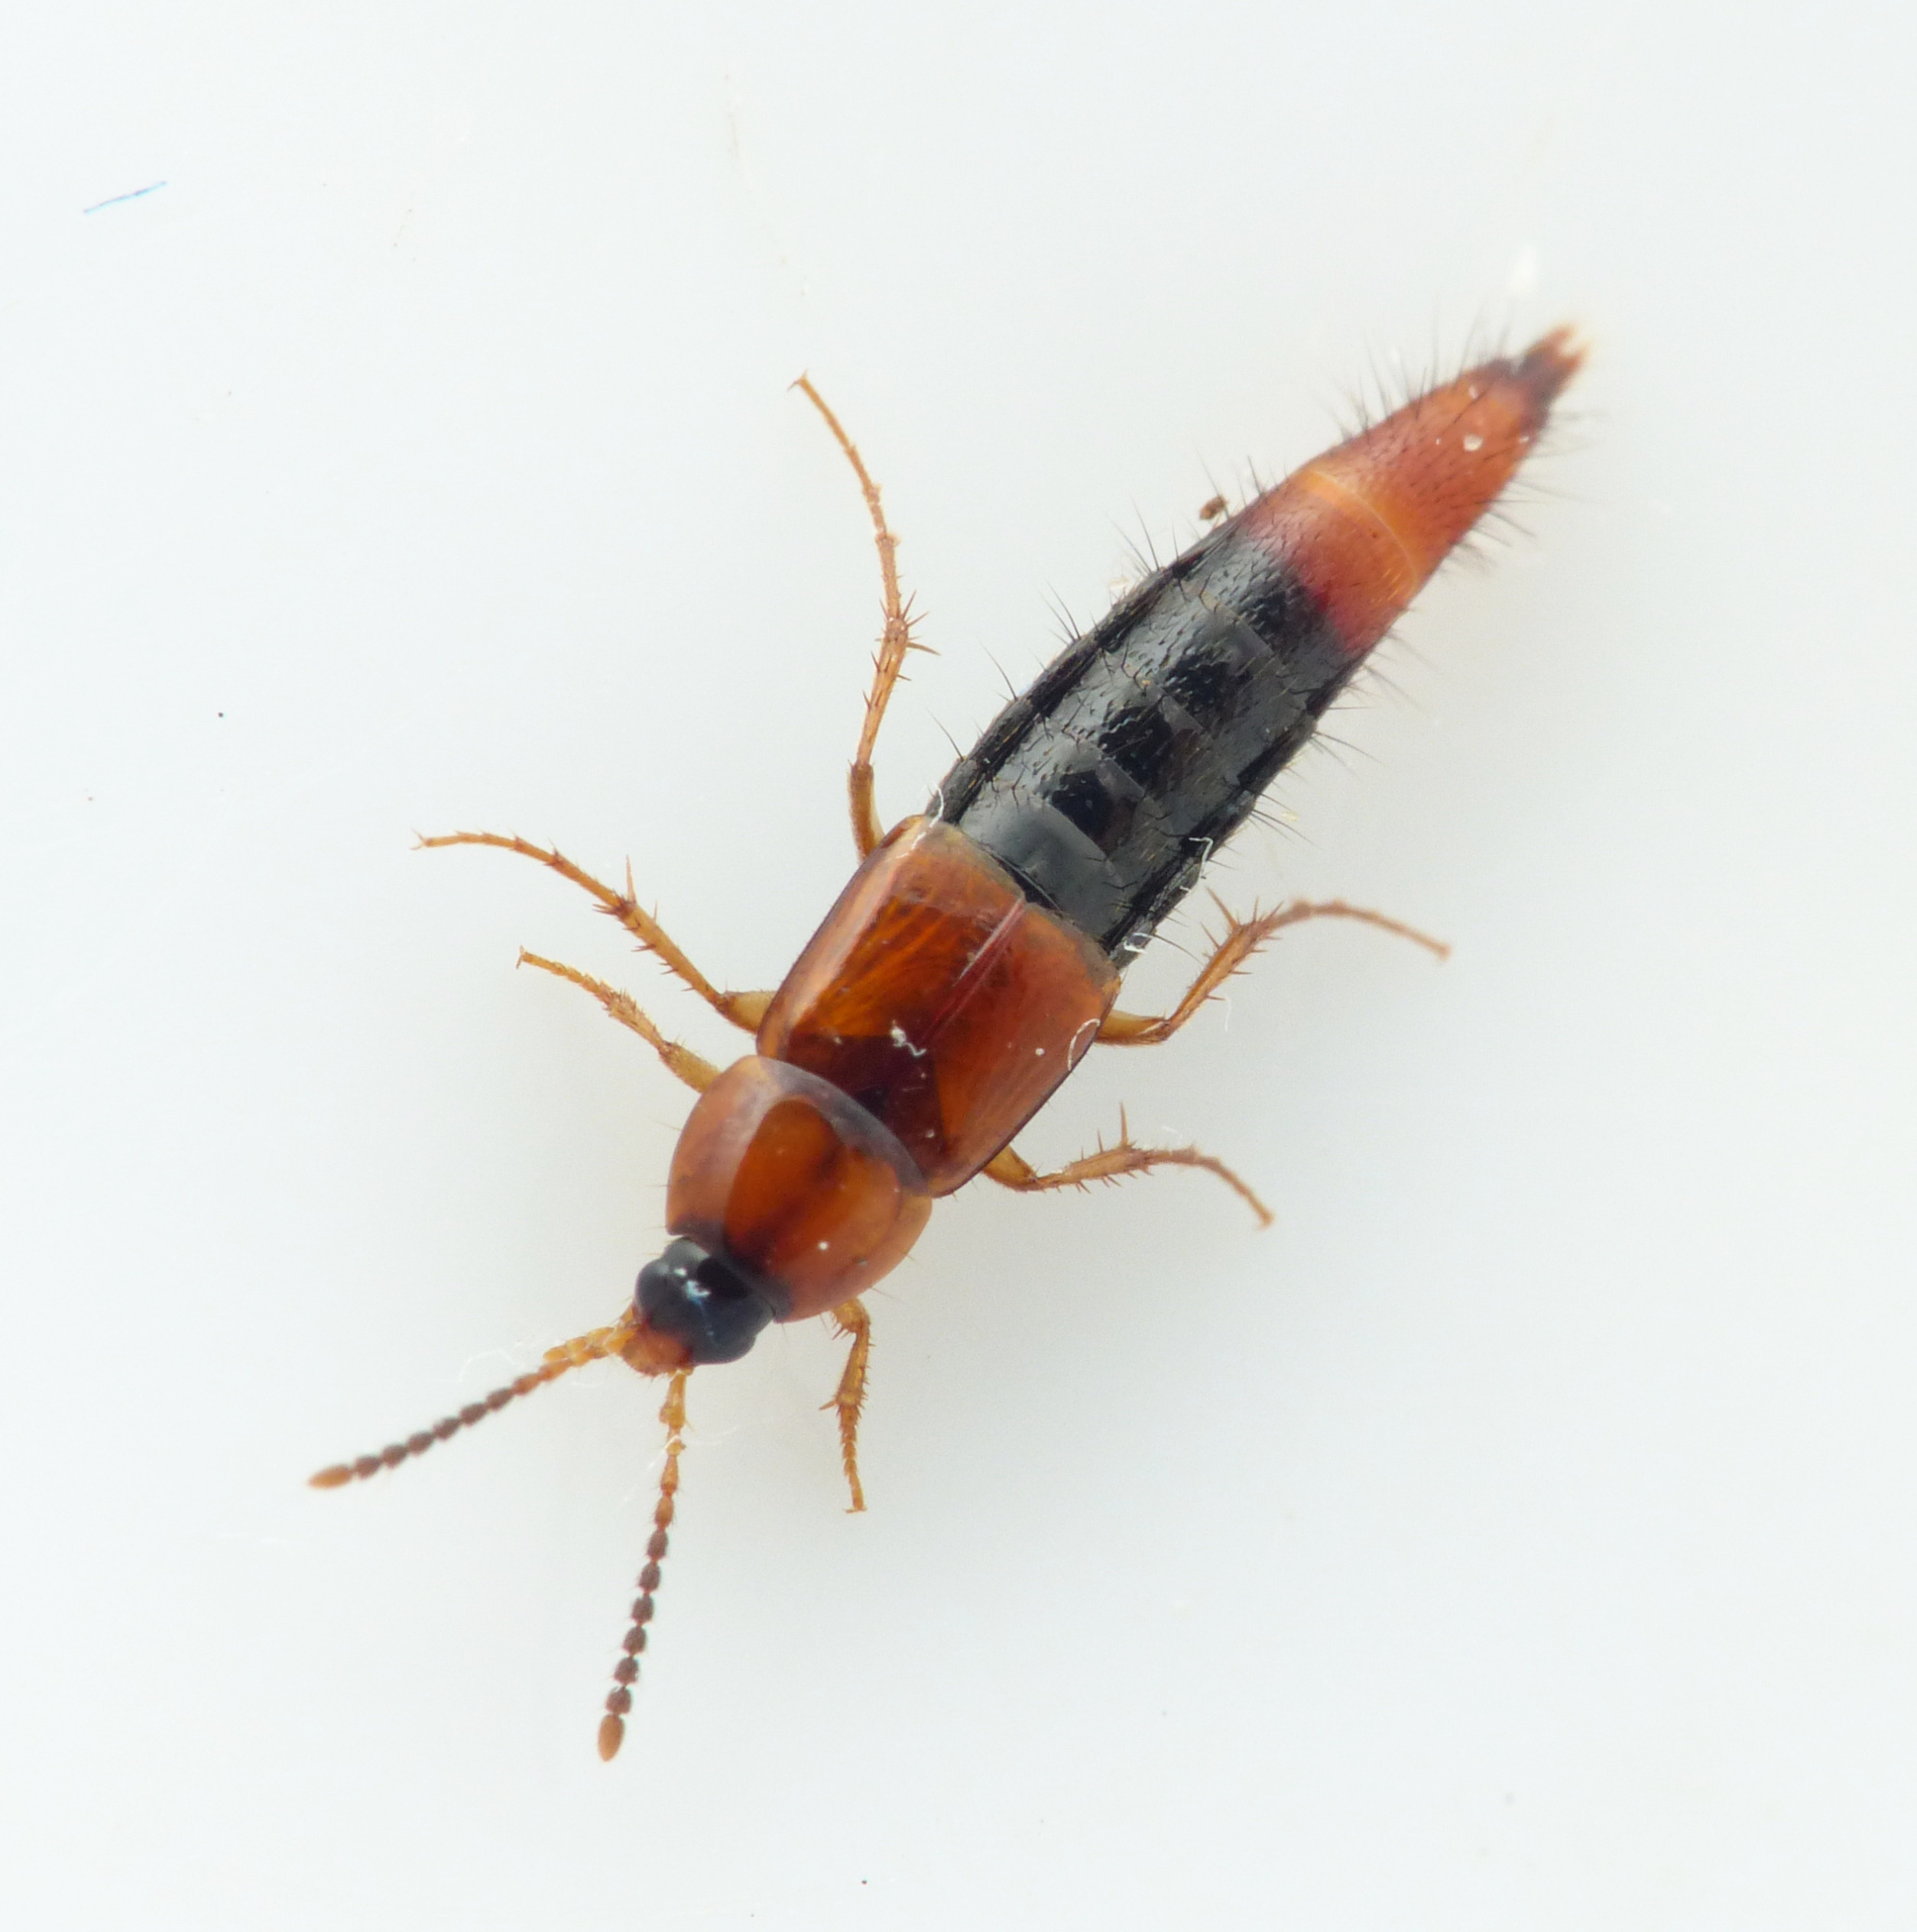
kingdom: Animalia
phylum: Arthropoda
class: Insecta
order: Coleoptera
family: Staphylinidae
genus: Bolitobius
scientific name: Bolitobius castaneus
